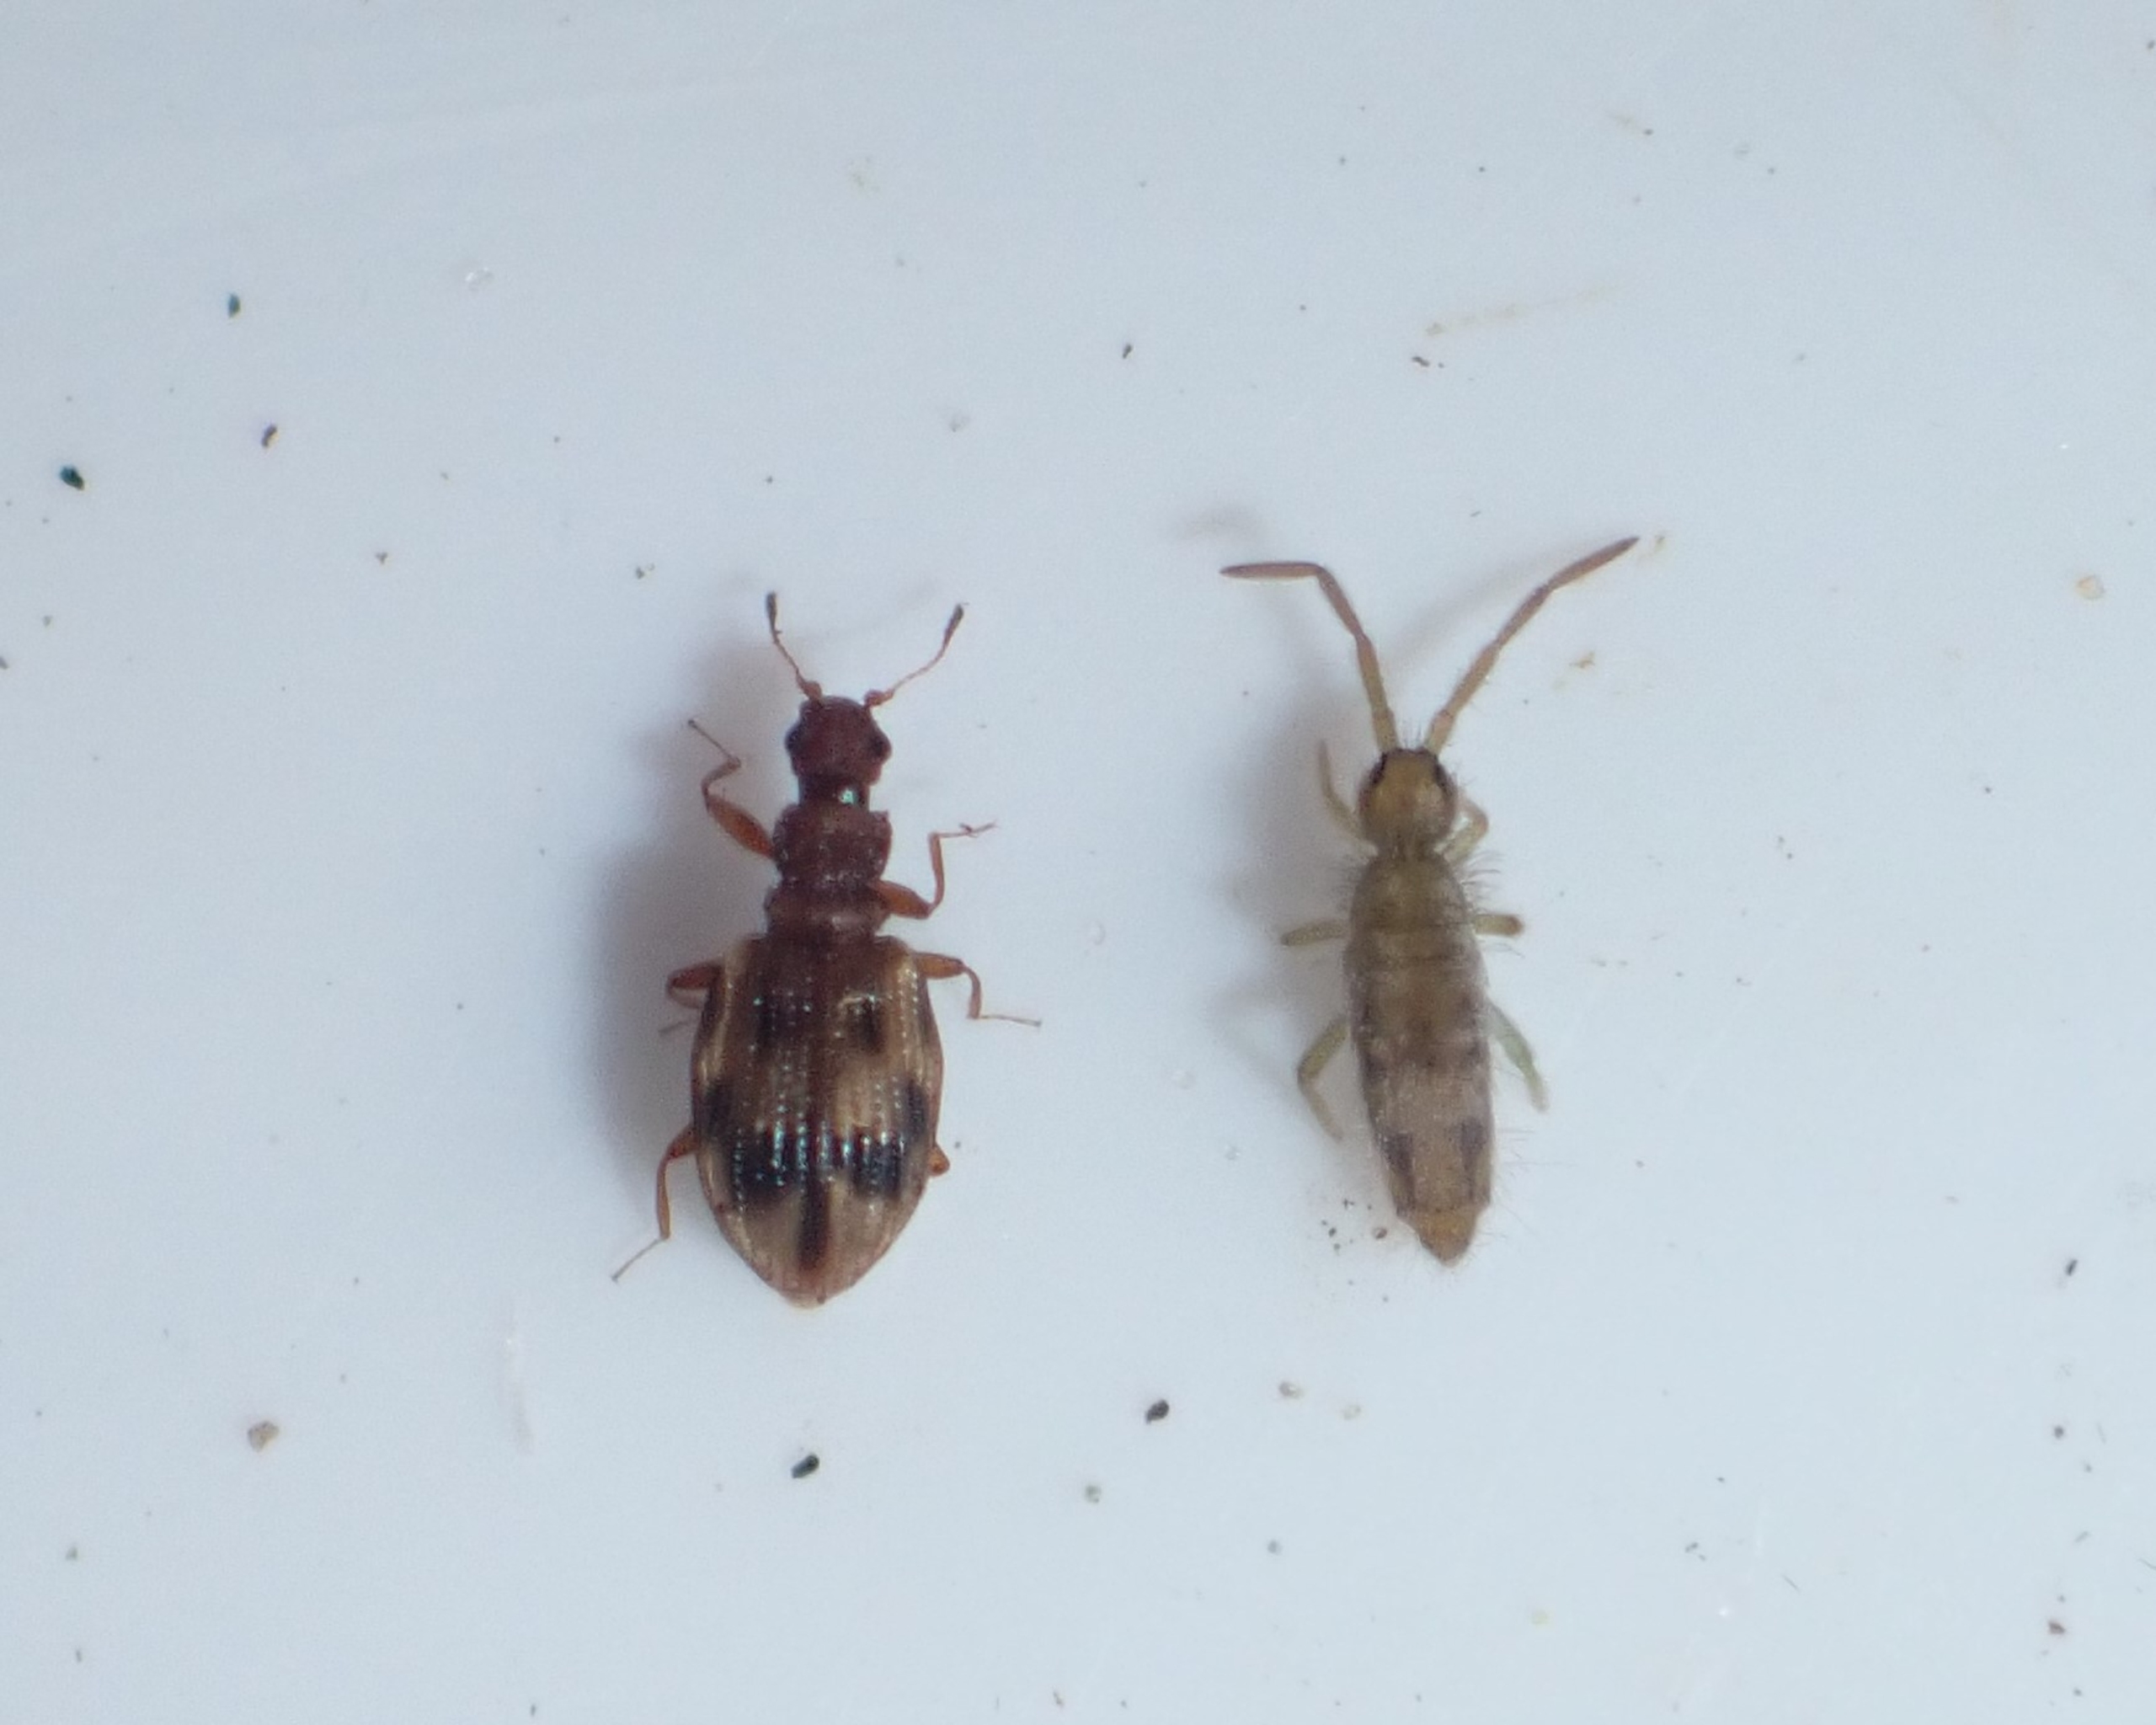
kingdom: Animalia
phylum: Arthropoda
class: Insecta
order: Coleoptera
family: Latridiidae
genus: Cartodere
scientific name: Cartodere bifasciata
